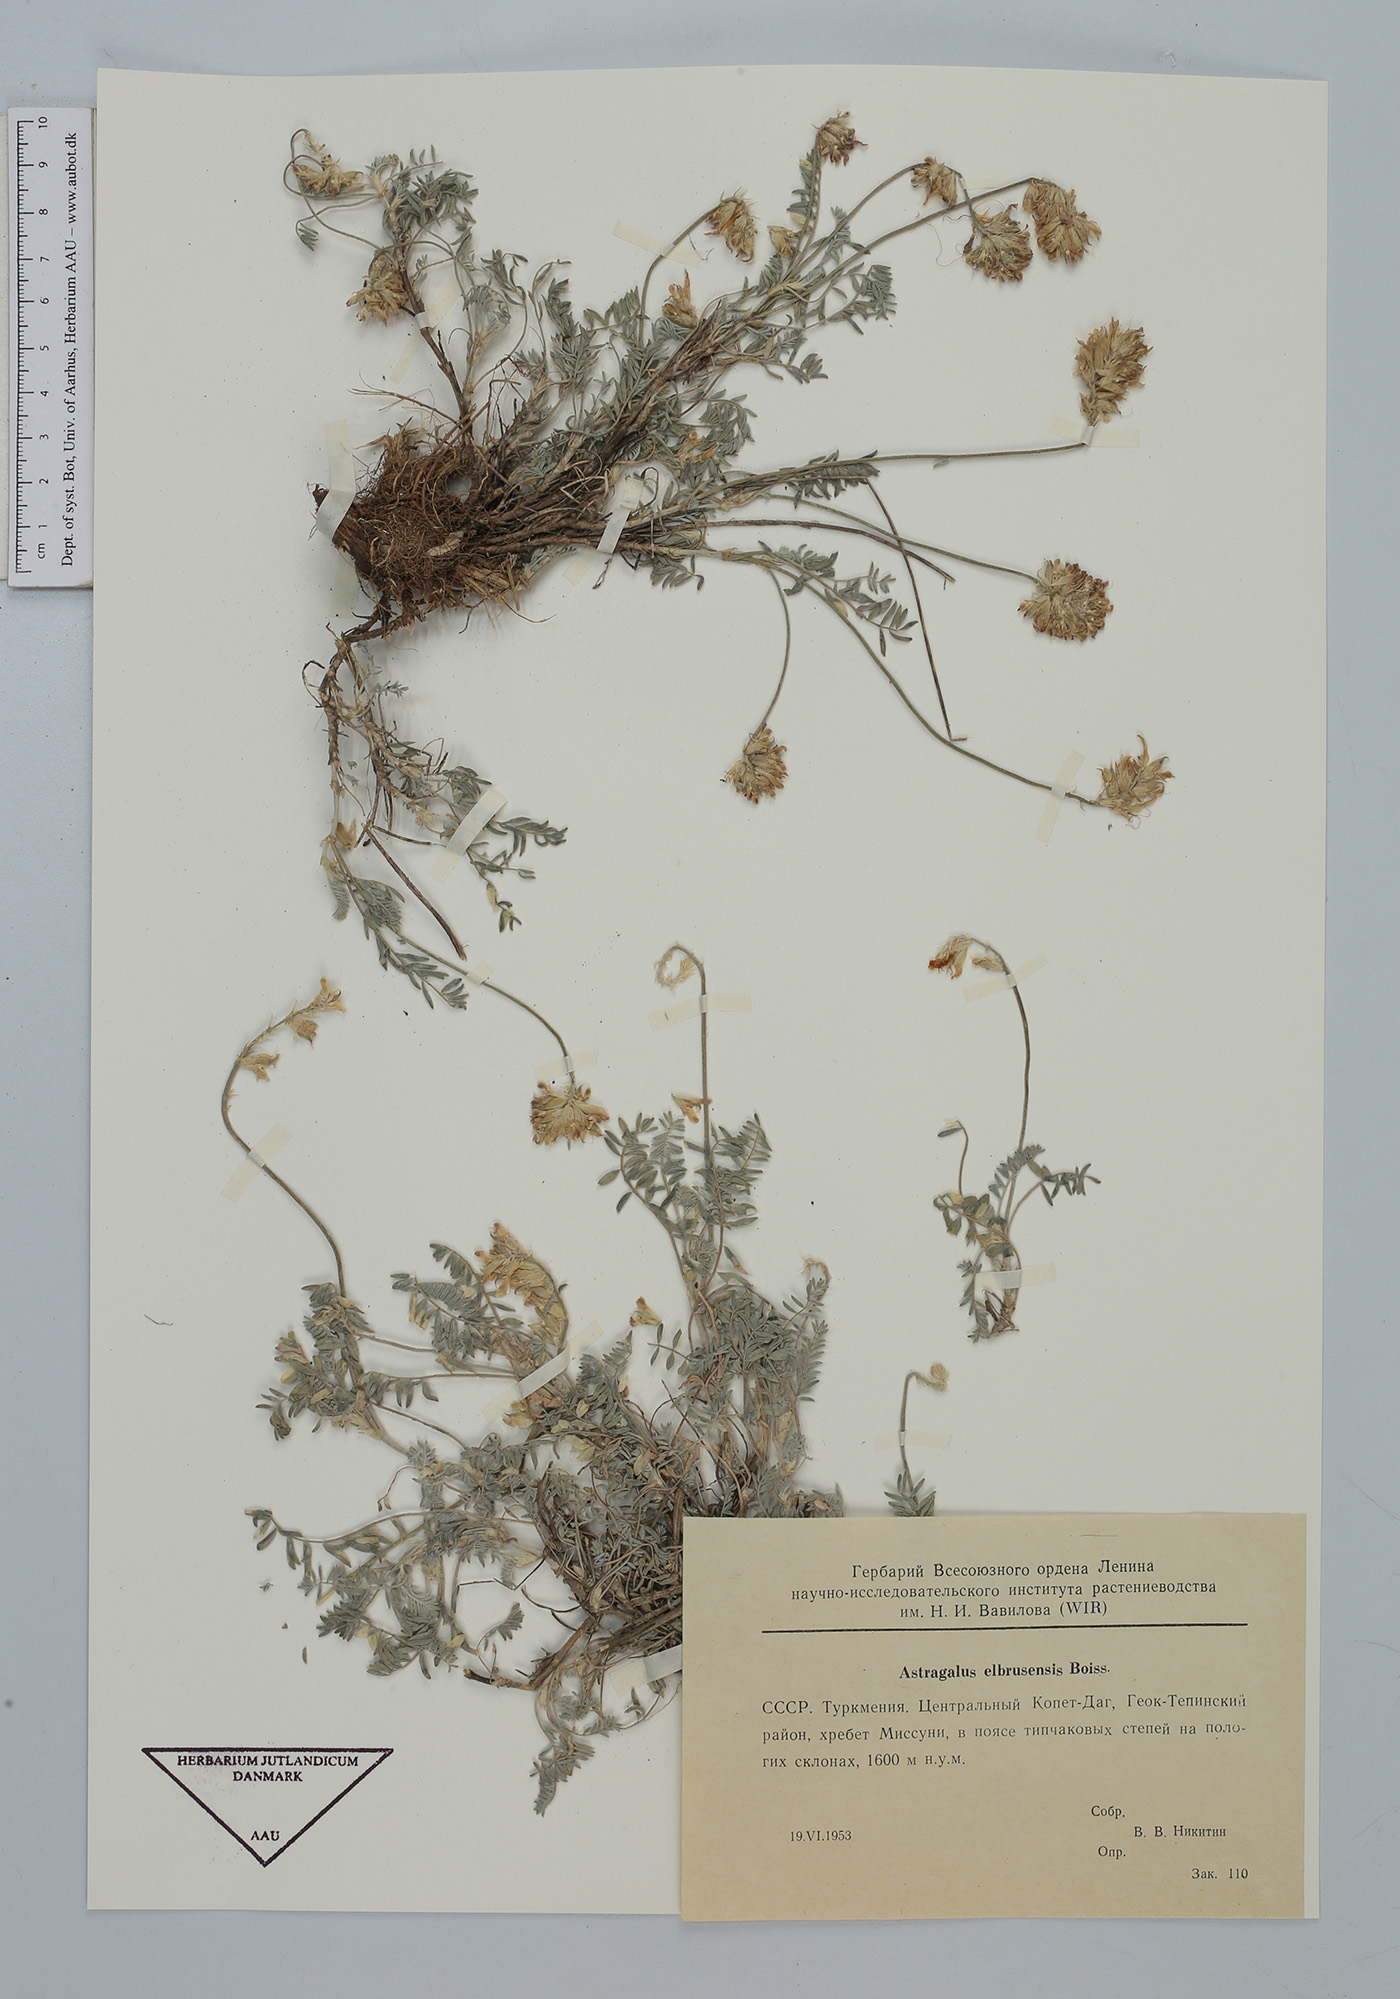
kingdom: Plantae
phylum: Tracheophyta
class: Magnoliopsida
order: Fabales
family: Fabaceae
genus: Astragalus
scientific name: Astragalus alyssoides
